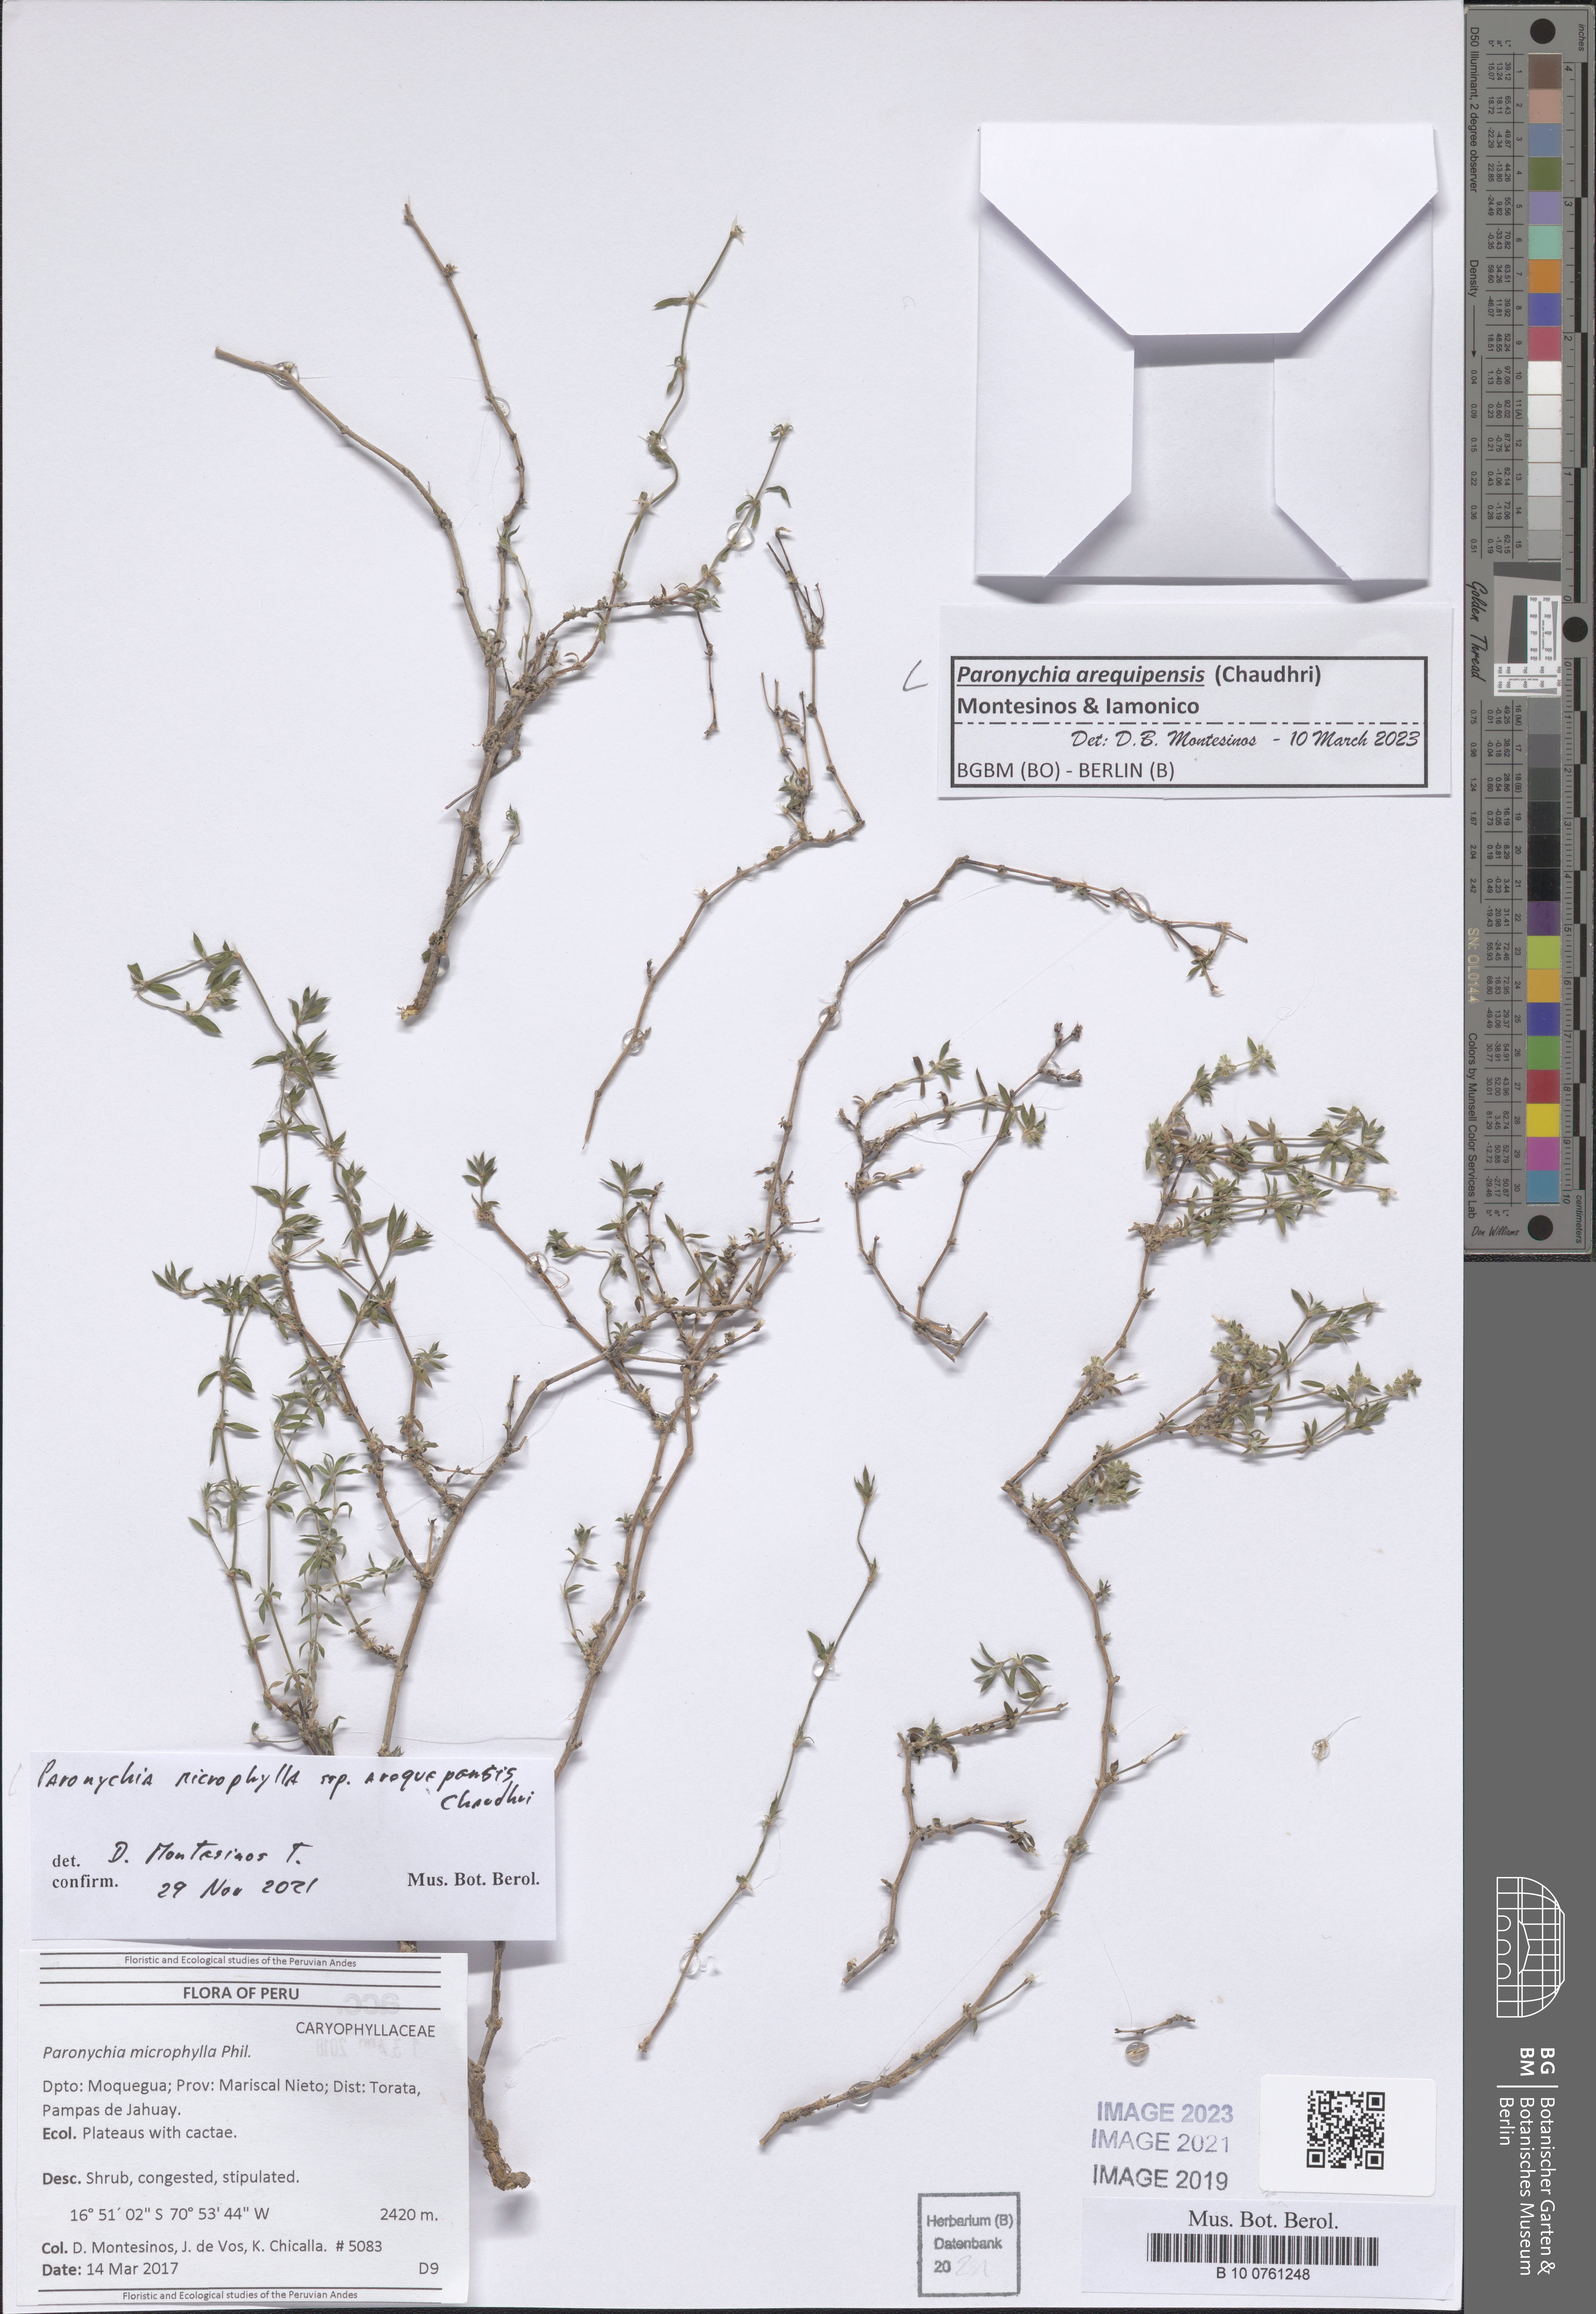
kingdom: Plantae
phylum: Tracheophyta
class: Magnoliopsida
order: Caryophyllales
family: Caryophyllaceae
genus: Paronychia
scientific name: Paronychia
